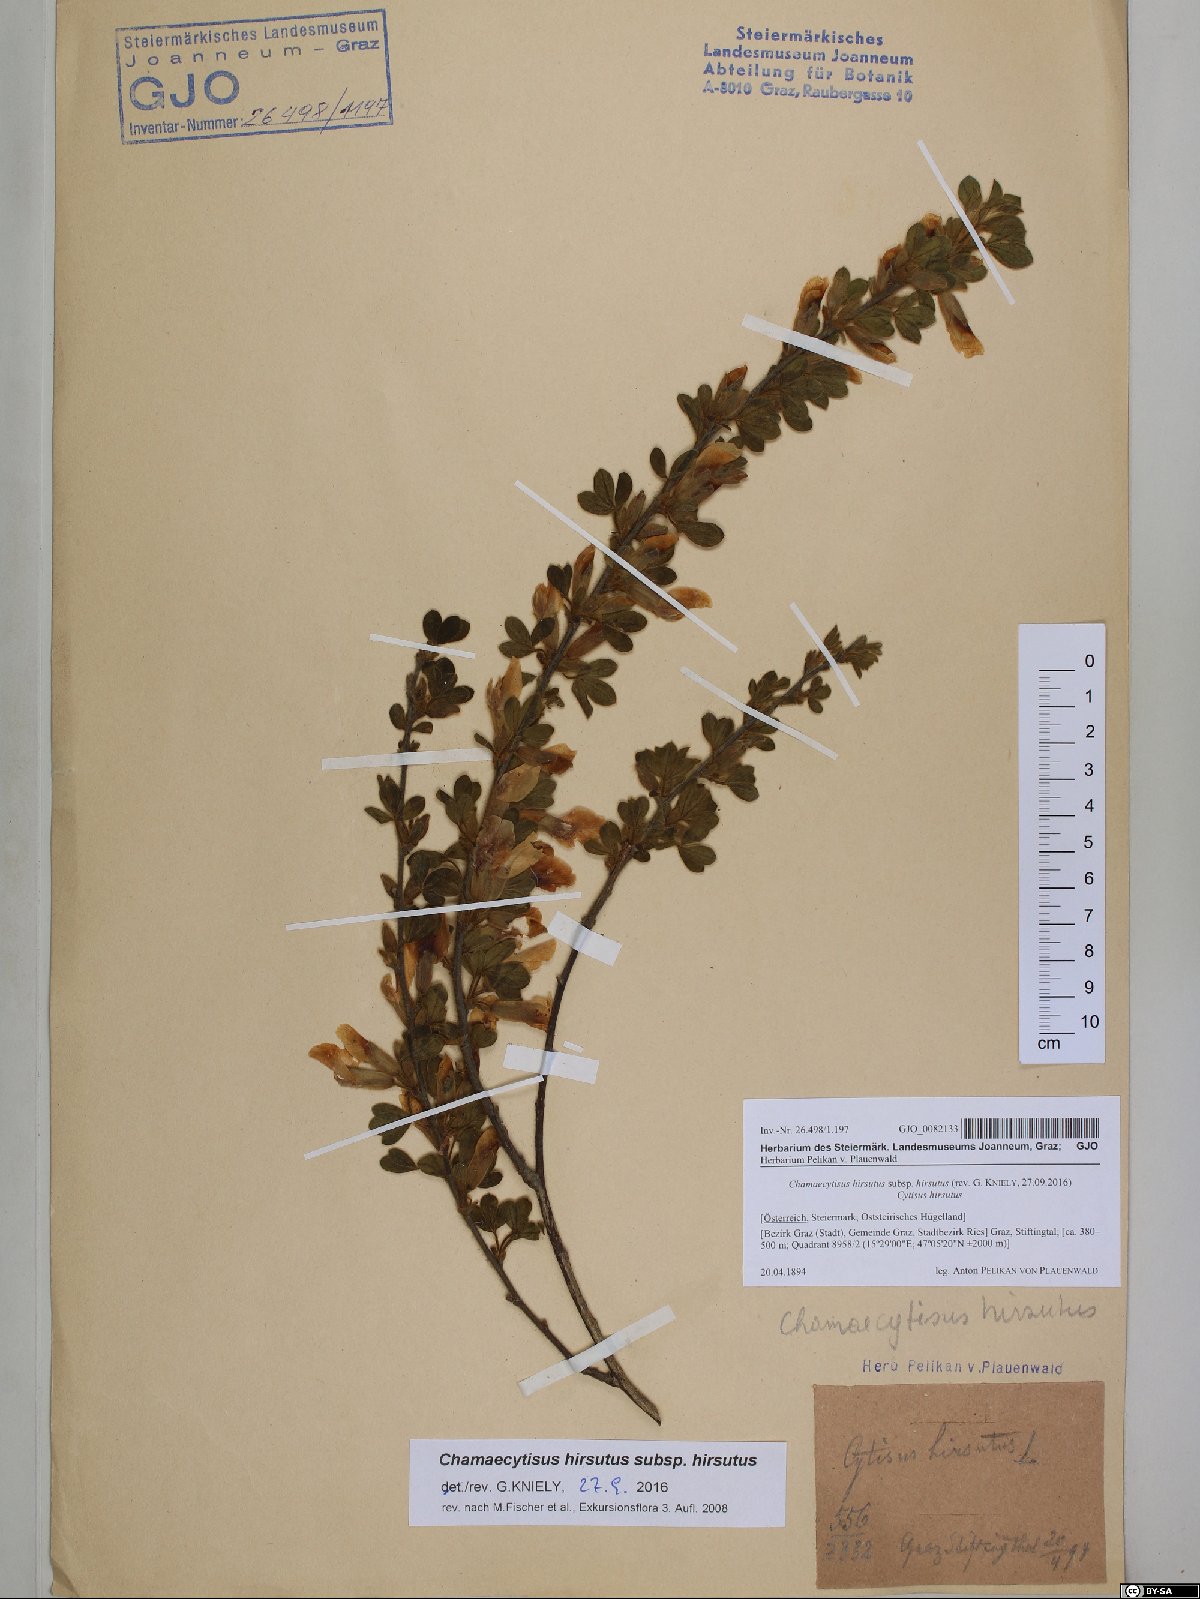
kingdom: Plantae
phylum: Tracheophyta
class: Magnoliopsida
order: Fabales
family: Fabaceae
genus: Chamaecytisus
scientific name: Chamaecytisus hirsutus
